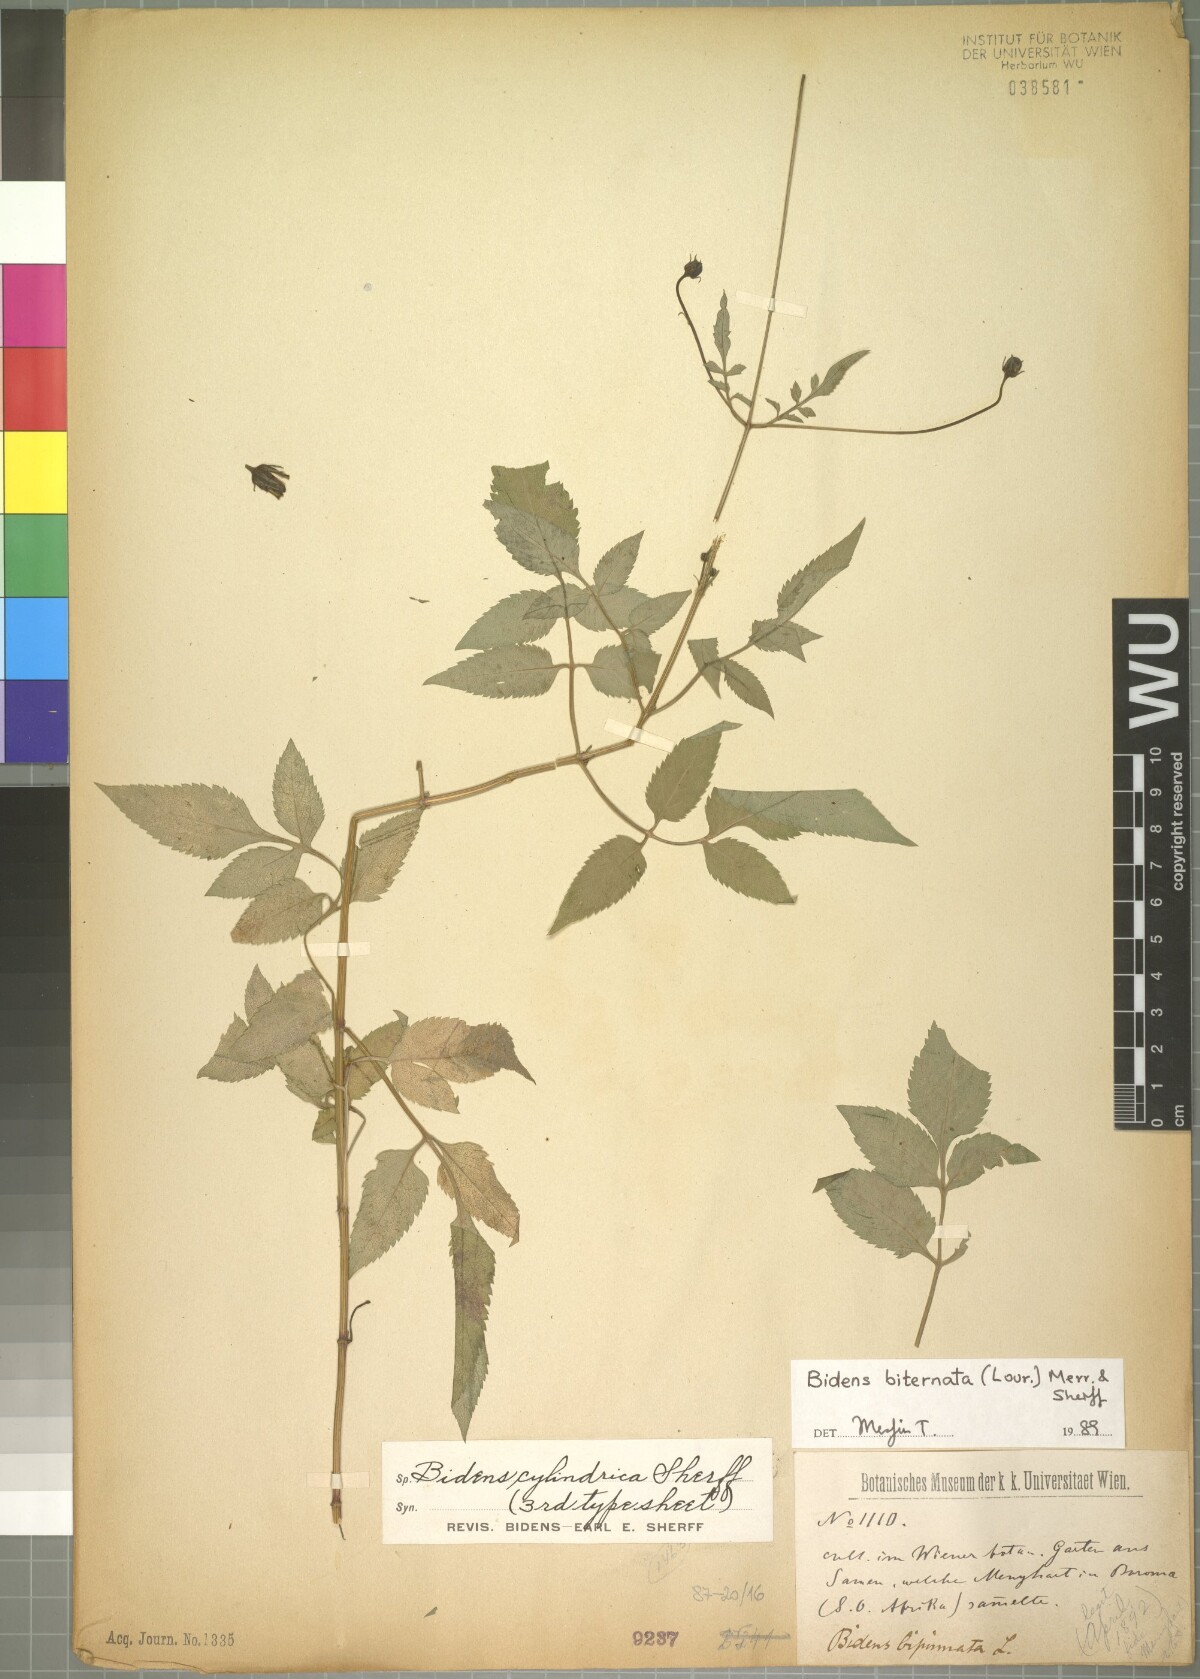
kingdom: Plantae
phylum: Tracheophyta
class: Magnoliopsida
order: Asterales
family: Asteraceae
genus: Bidens
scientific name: Bidens biternata
